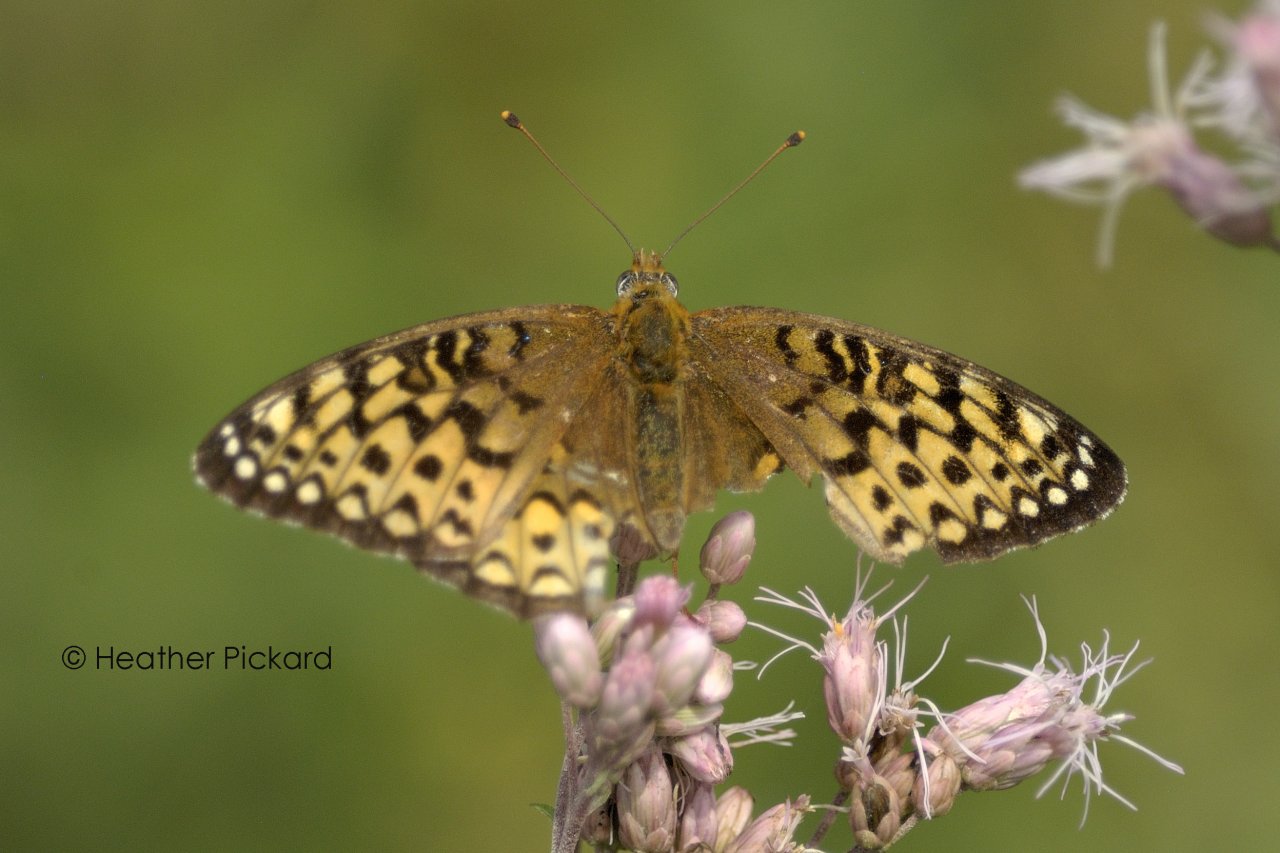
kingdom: Animalia
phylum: Arthropoda
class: Insecta
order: Lepidoptera
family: Nymphalidae
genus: Speyeria
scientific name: Speyeria
